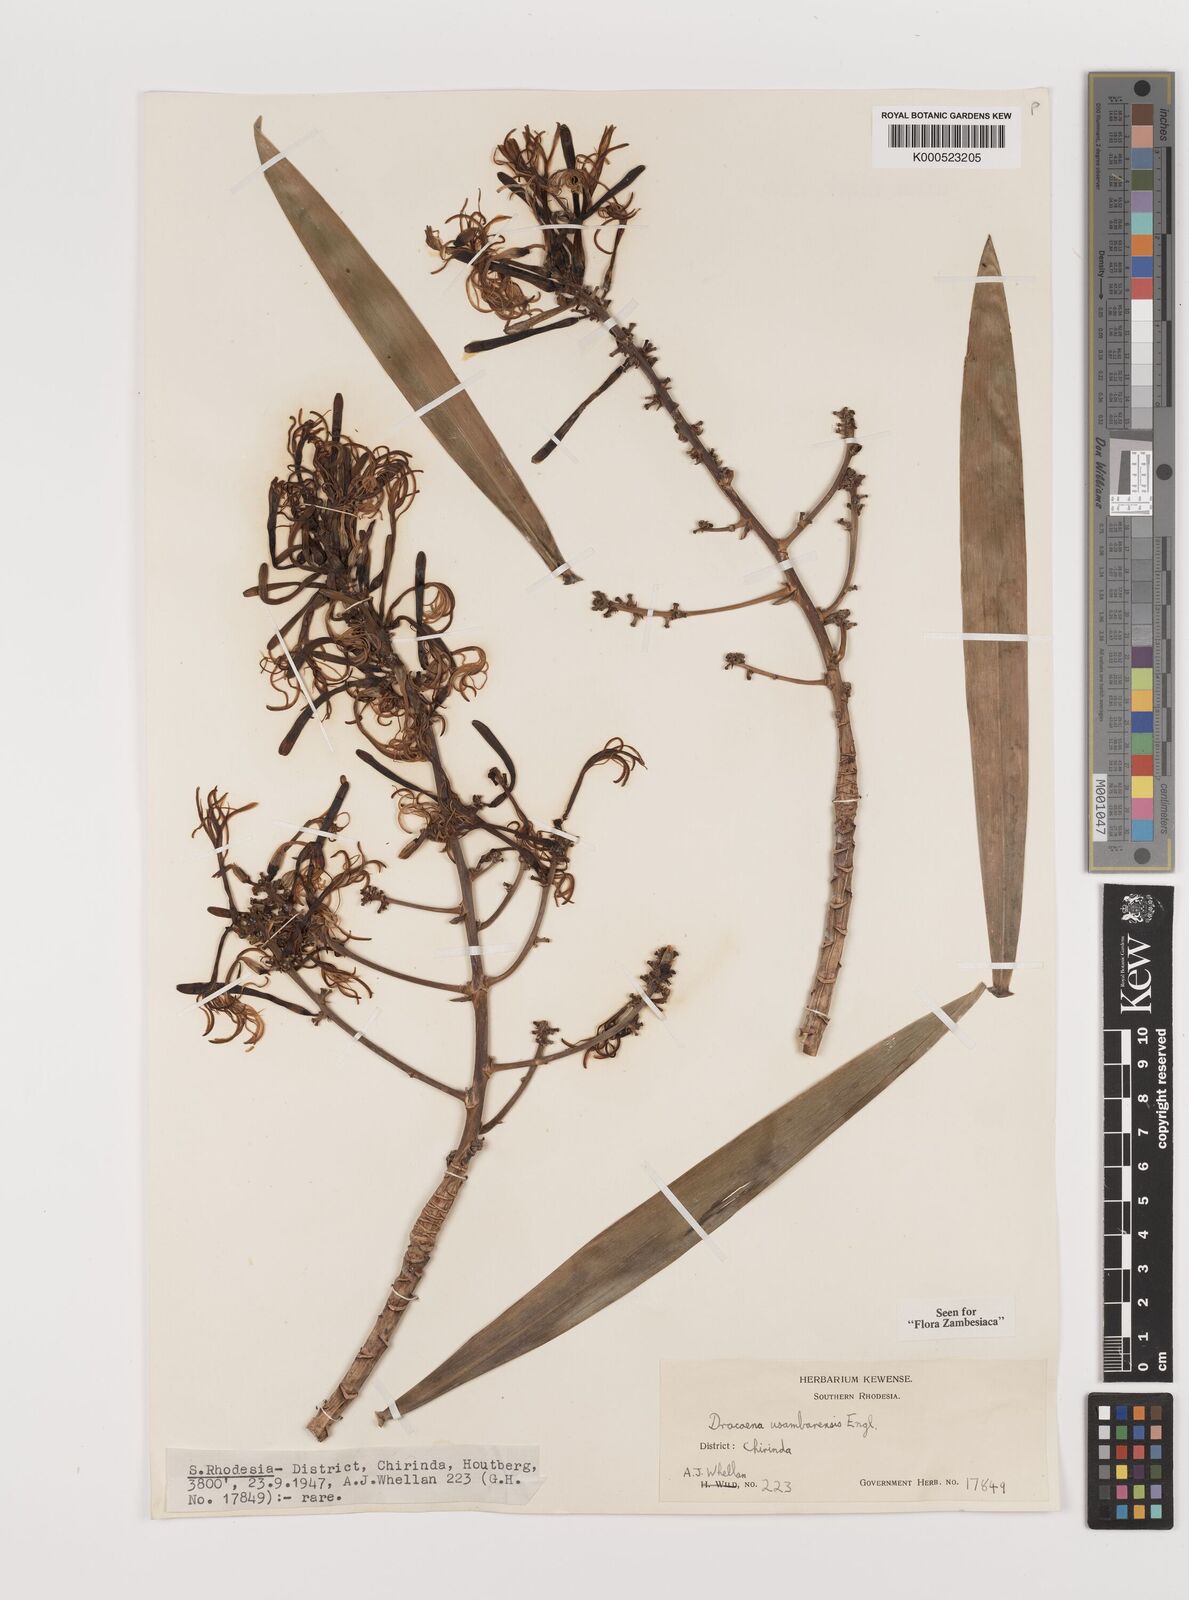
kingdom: Plantae
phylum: Tracheophyta
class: Liliopsida
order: Asparagales
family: Asparagaceae
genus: Dracaena
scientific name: Dracaena usambarensis
